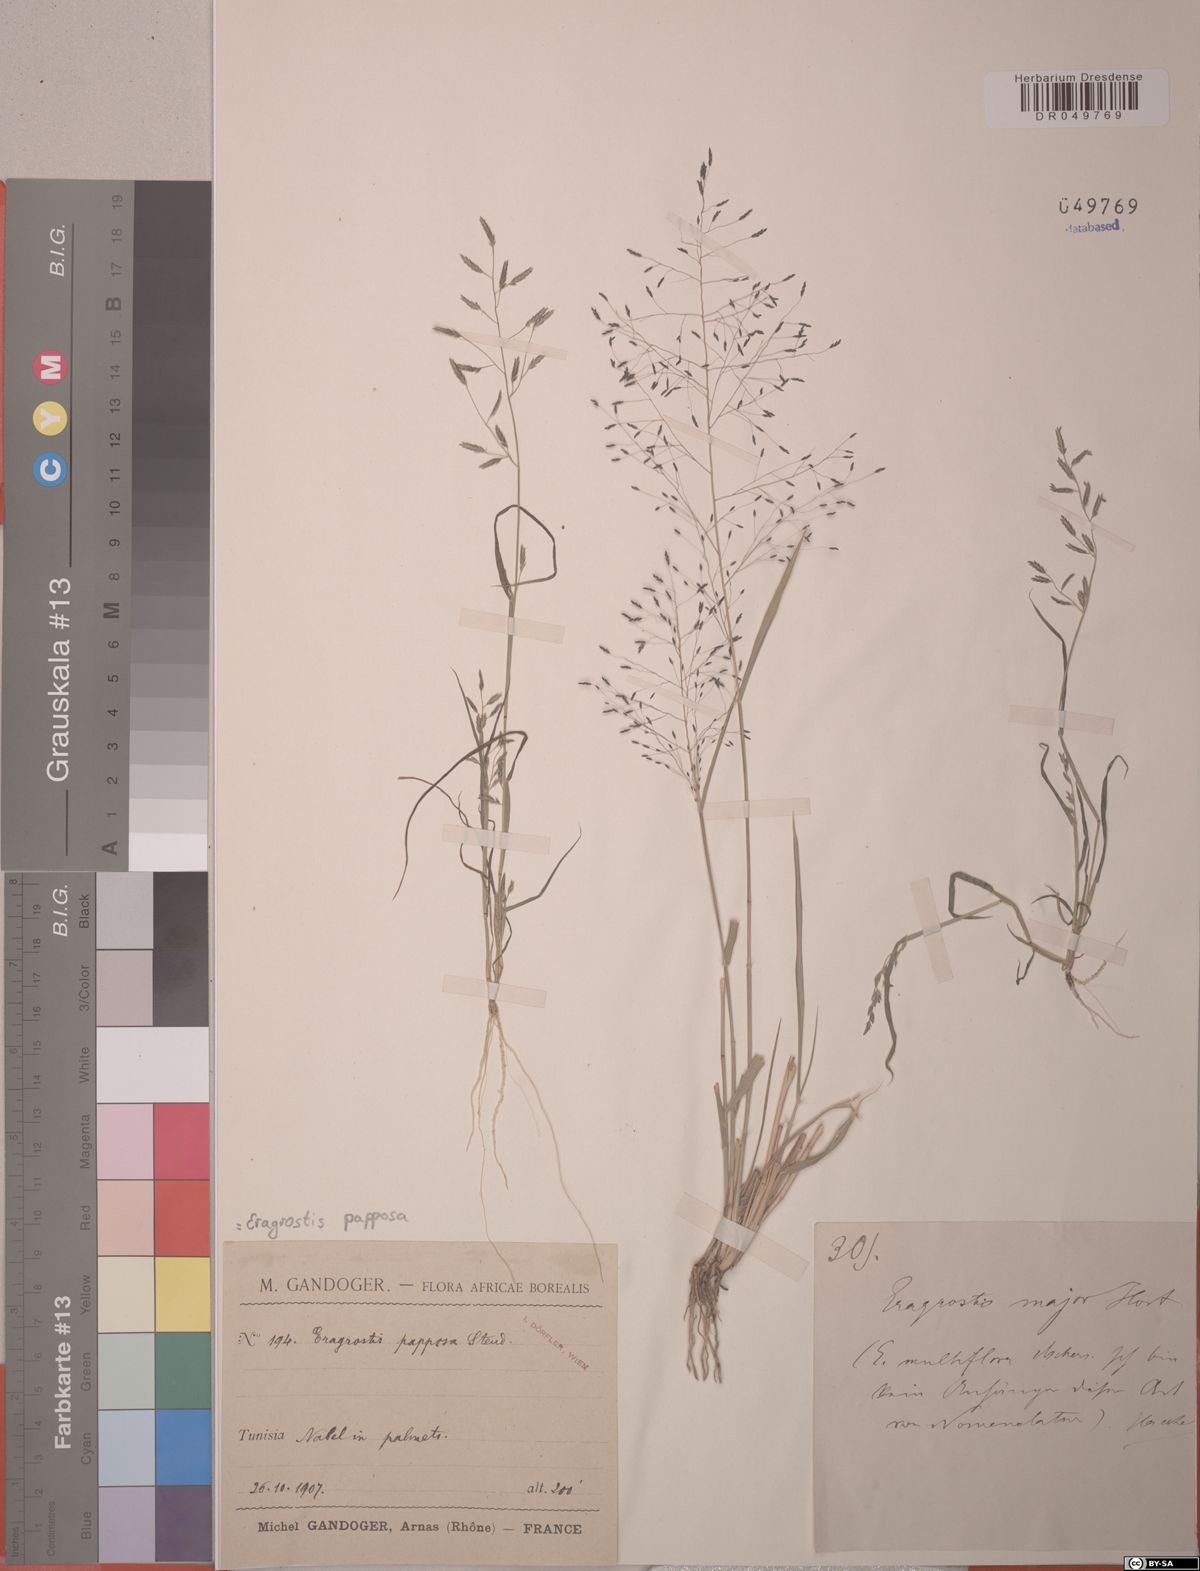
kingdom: Plantae
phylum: Tracheophyta
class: Liliopsida
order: Poales
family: Poaceae
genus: Eragrostis
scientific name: Eragrostis papposa
